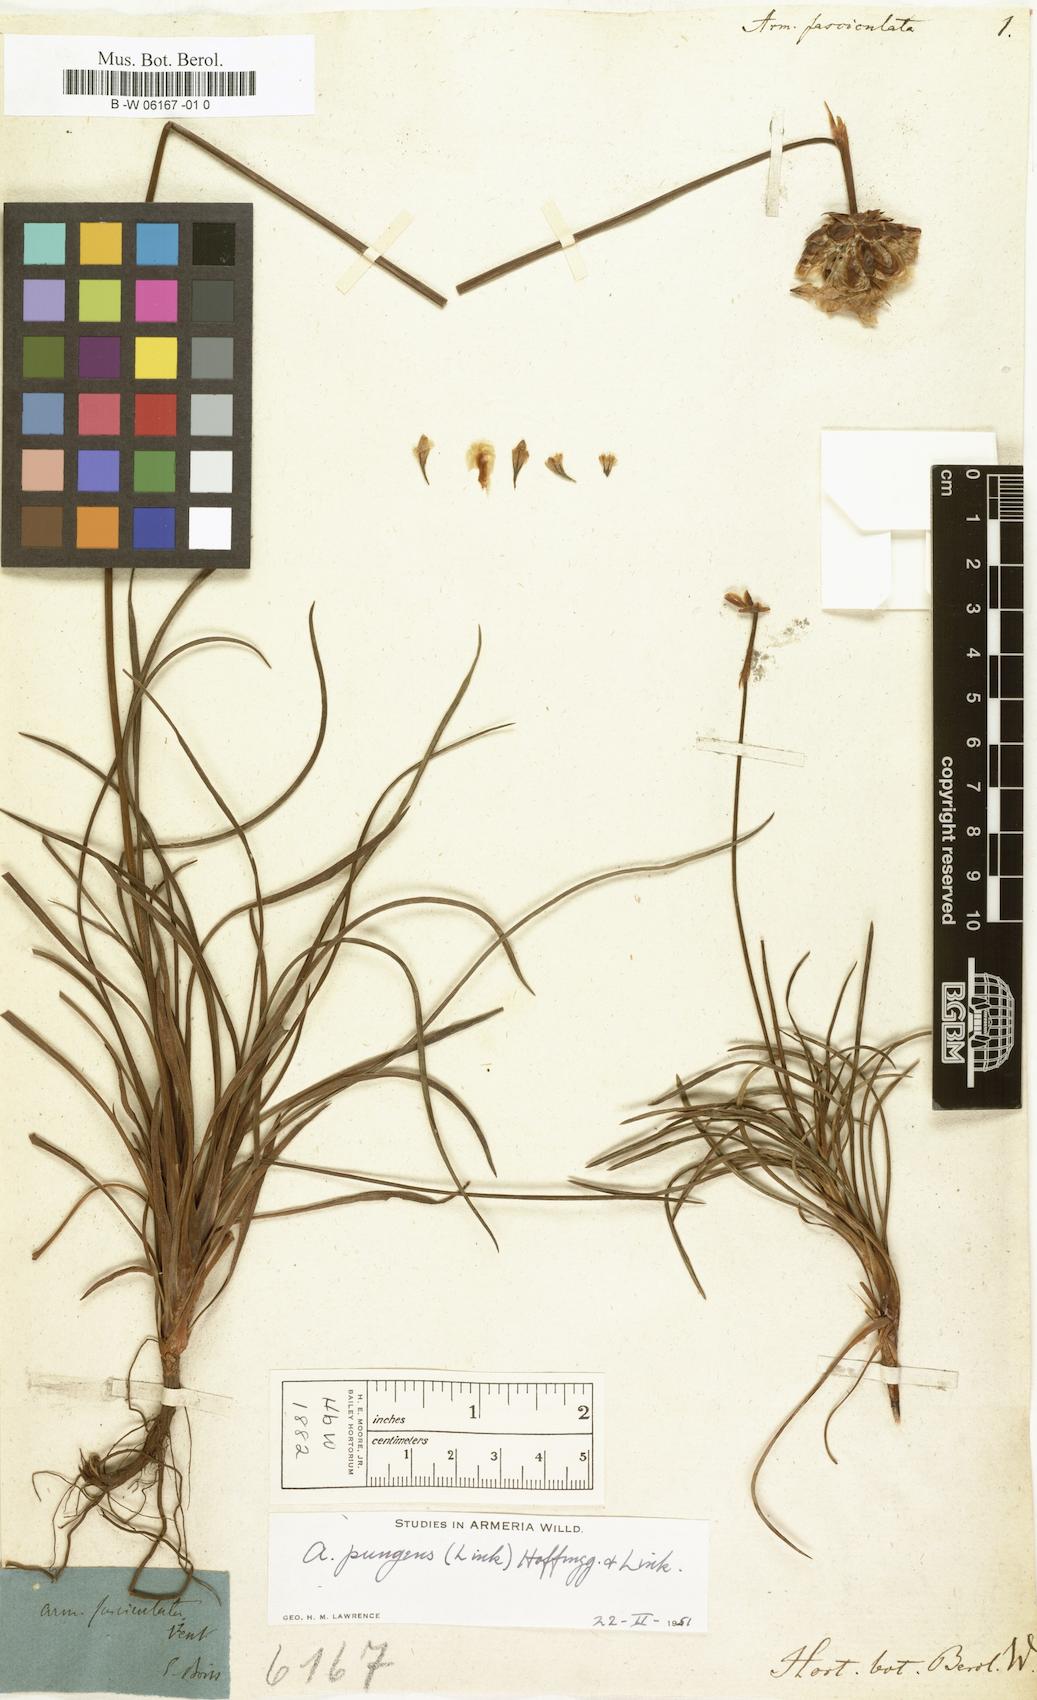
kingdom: Plantae
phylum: Tracheophyta
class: Magnoliopsida
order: Caryophyllales
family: Plumbaginaceae
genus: Armeria
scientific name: Armeria pungens
